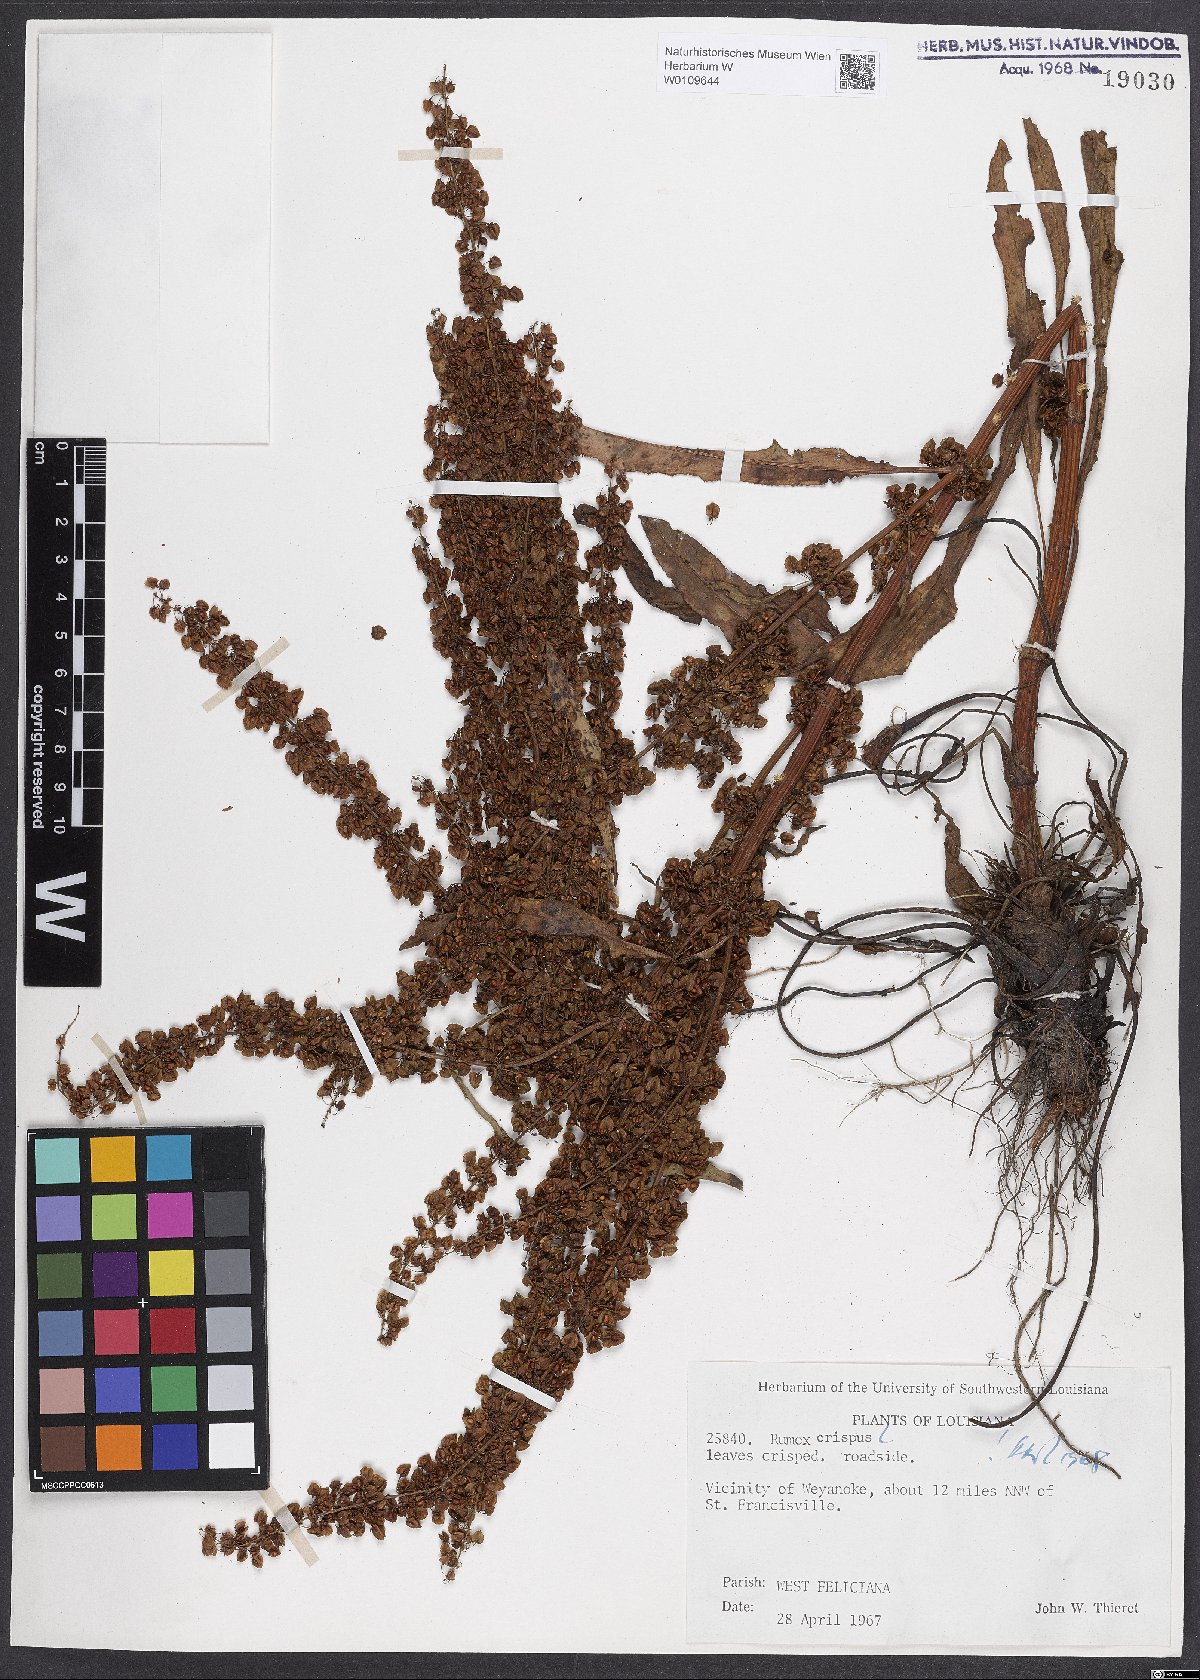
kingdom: Plantae
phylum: Tracheophyta
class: Magnoliopsida
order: Caryophyllales
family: Polygonaceae
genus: Rumex
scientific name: Rumex crispus
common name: Curled dock
